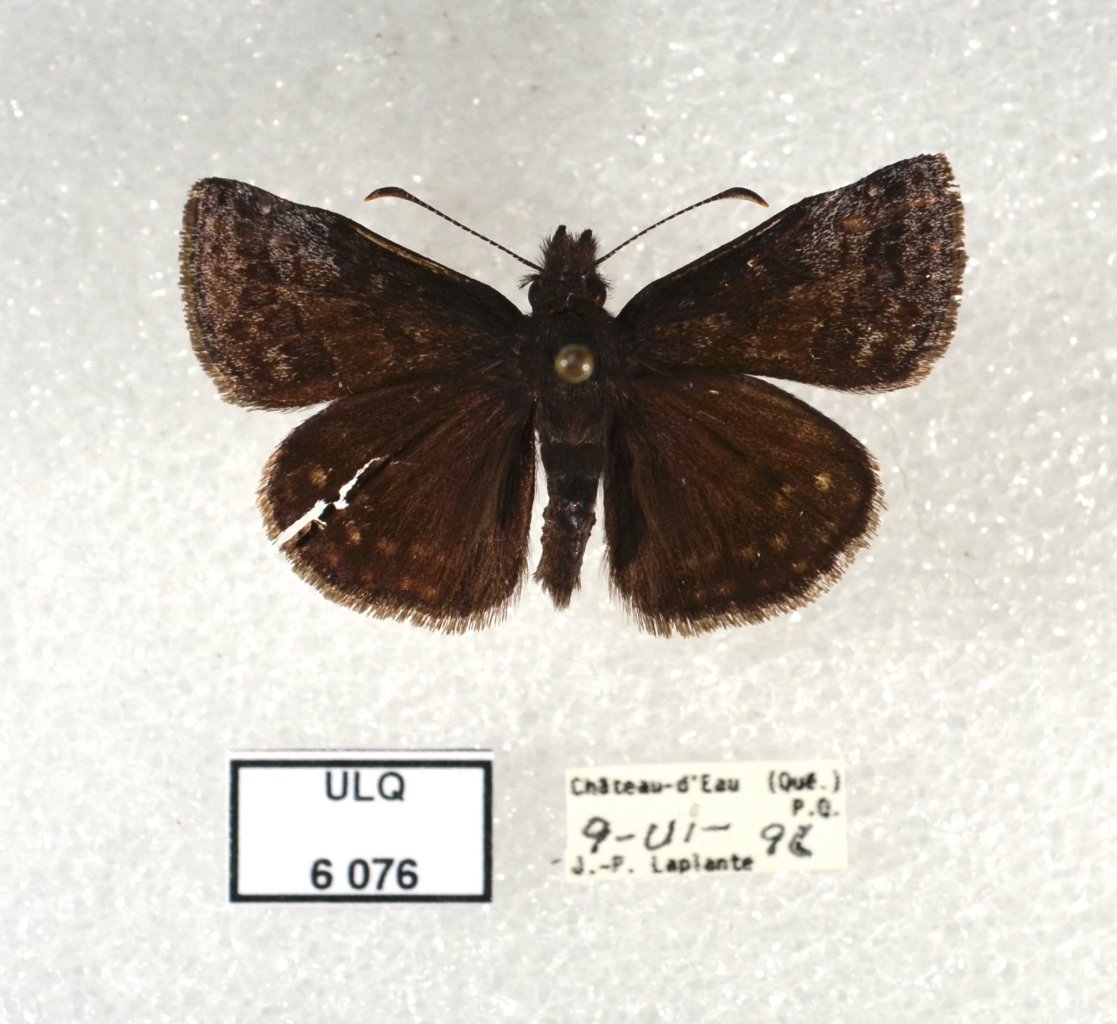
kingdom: Animalia
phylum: Arthropoda
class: Insecta
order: Lepidoptera
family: Hesperiidae
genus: Erynnis
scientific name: Erynnis icelus
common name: Dreamy Duskywing
